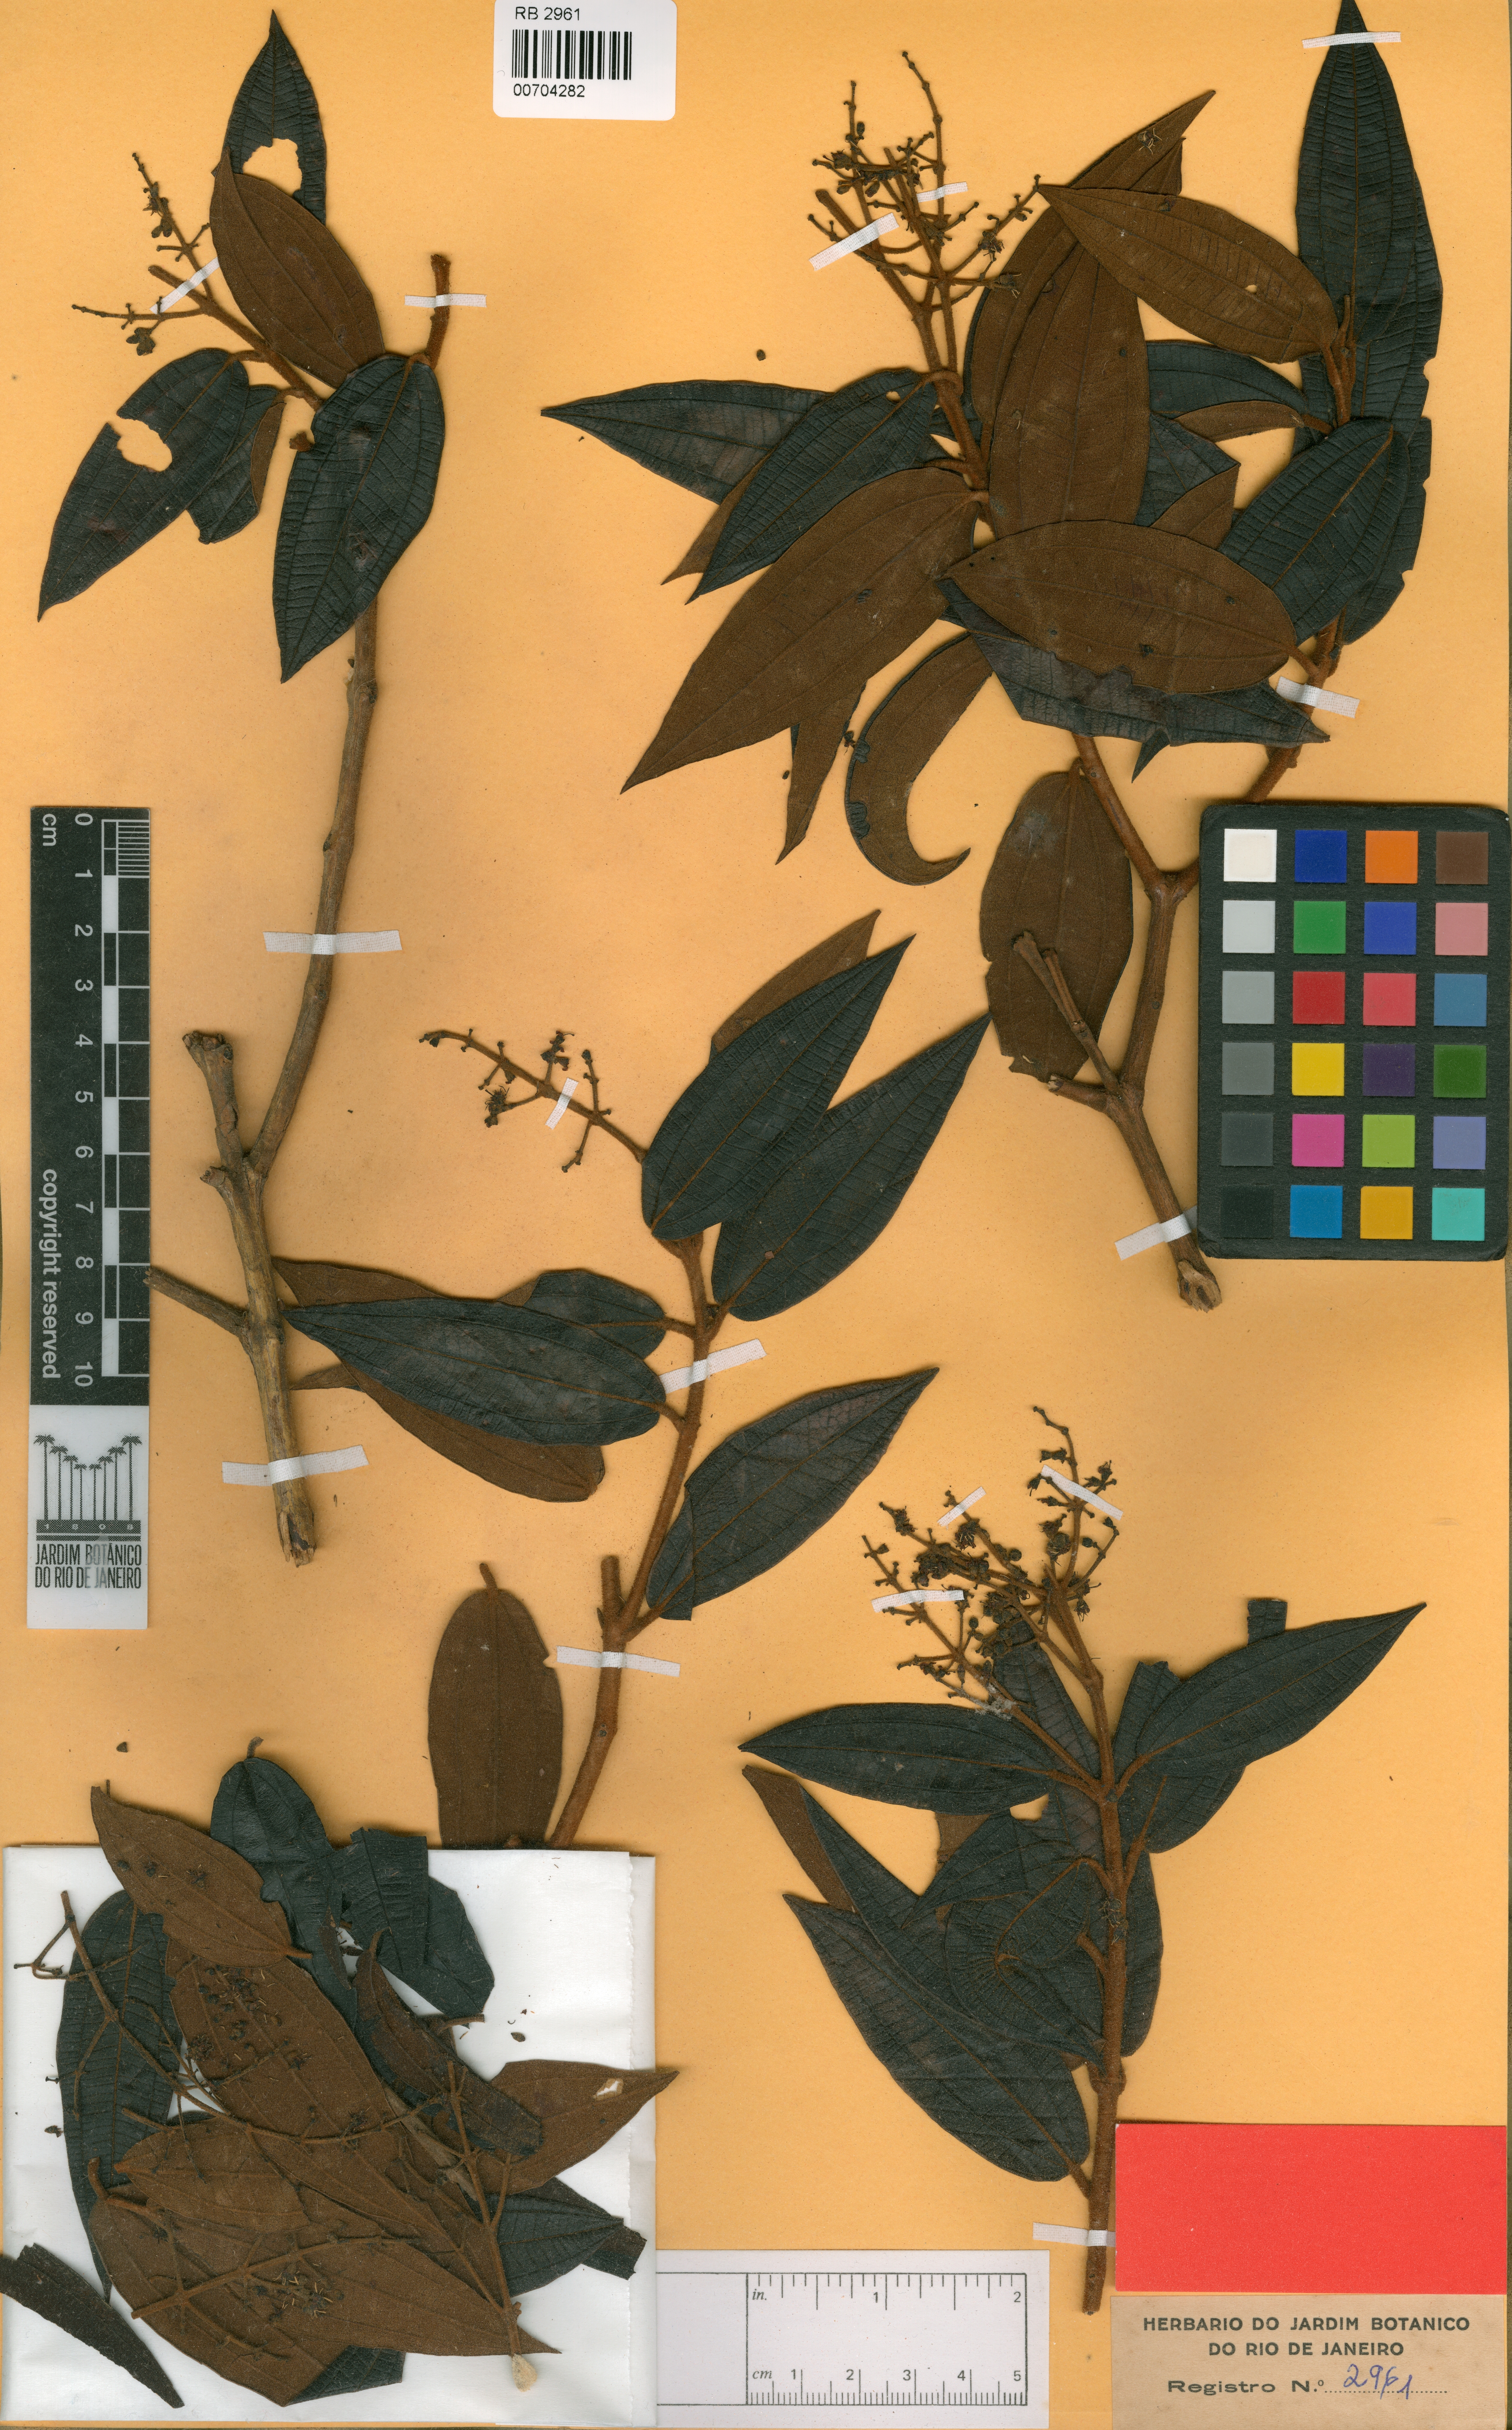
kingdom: Plantae
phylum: Tracheophyta
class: Magnoliopsida
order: Myrtales
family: Melastomataceae
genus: Miconia
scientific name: Miconia brevipes
